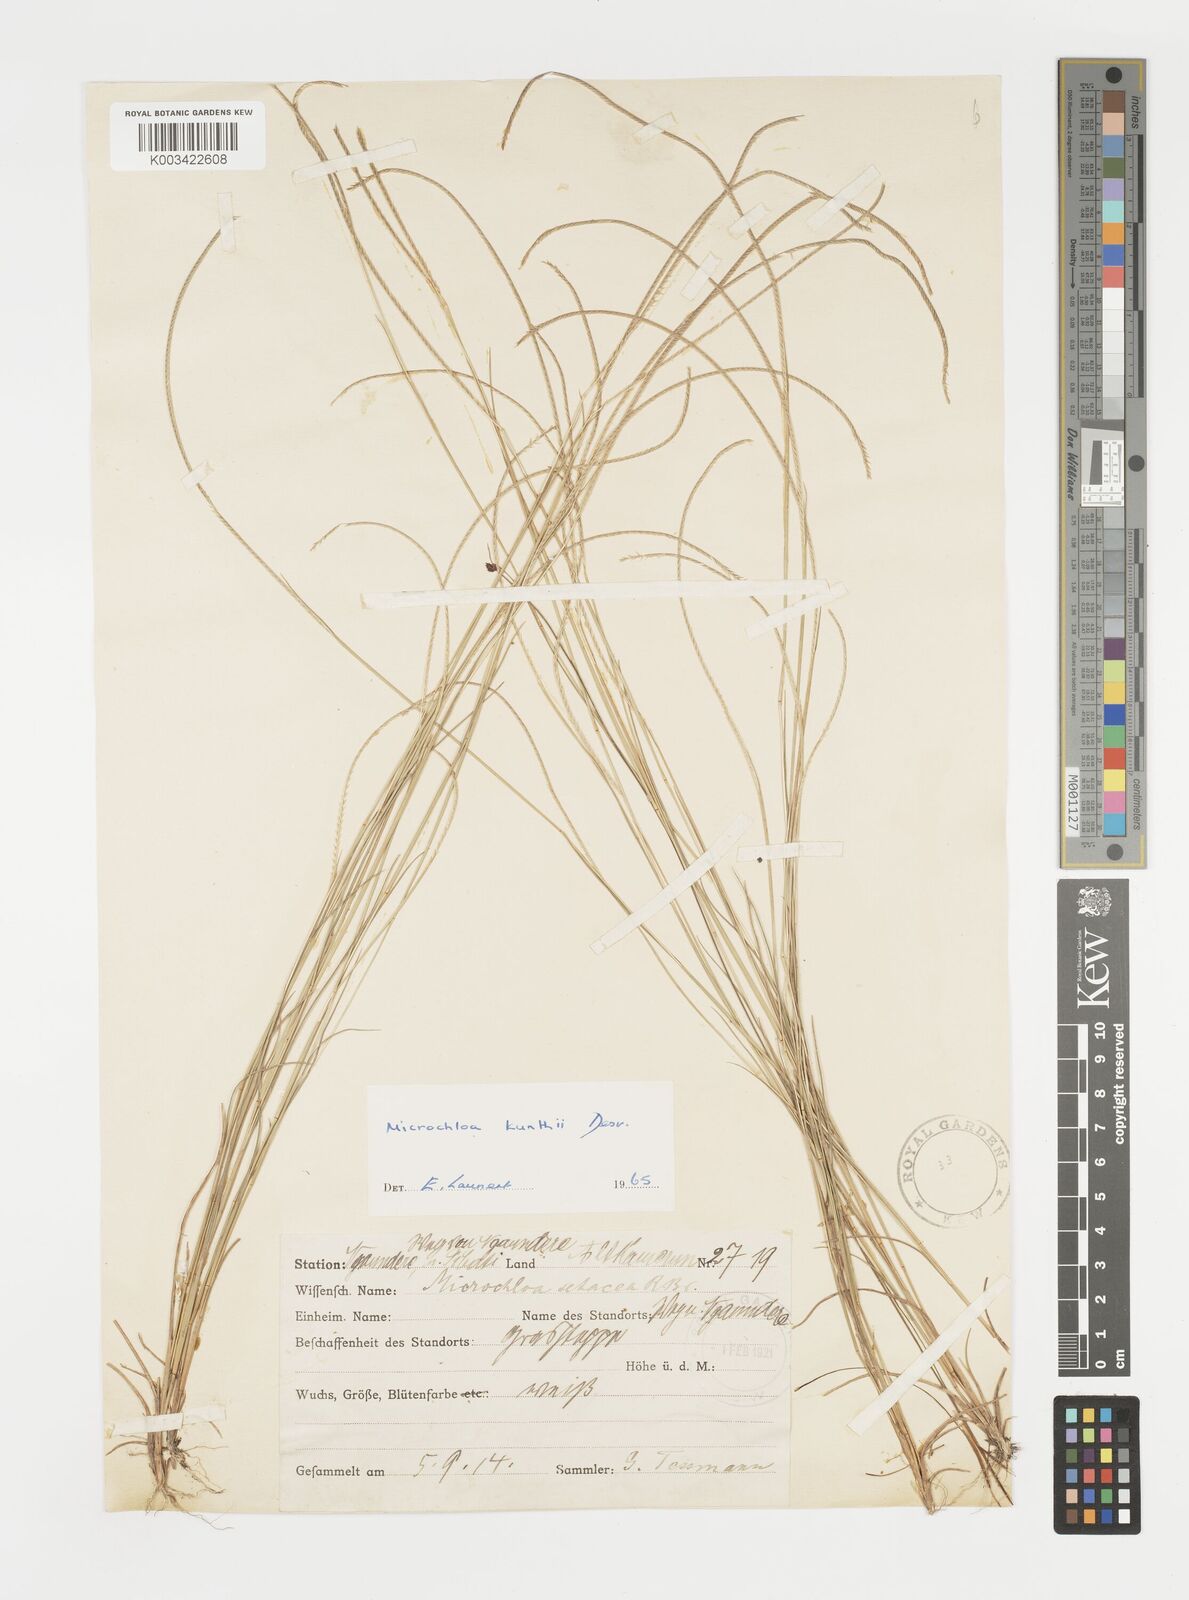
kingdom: Plantae
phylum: Tracheophyta
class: Liliopsida
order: Poales
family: Poaceae
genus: Microchloa
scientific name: Microchloa kunthii
